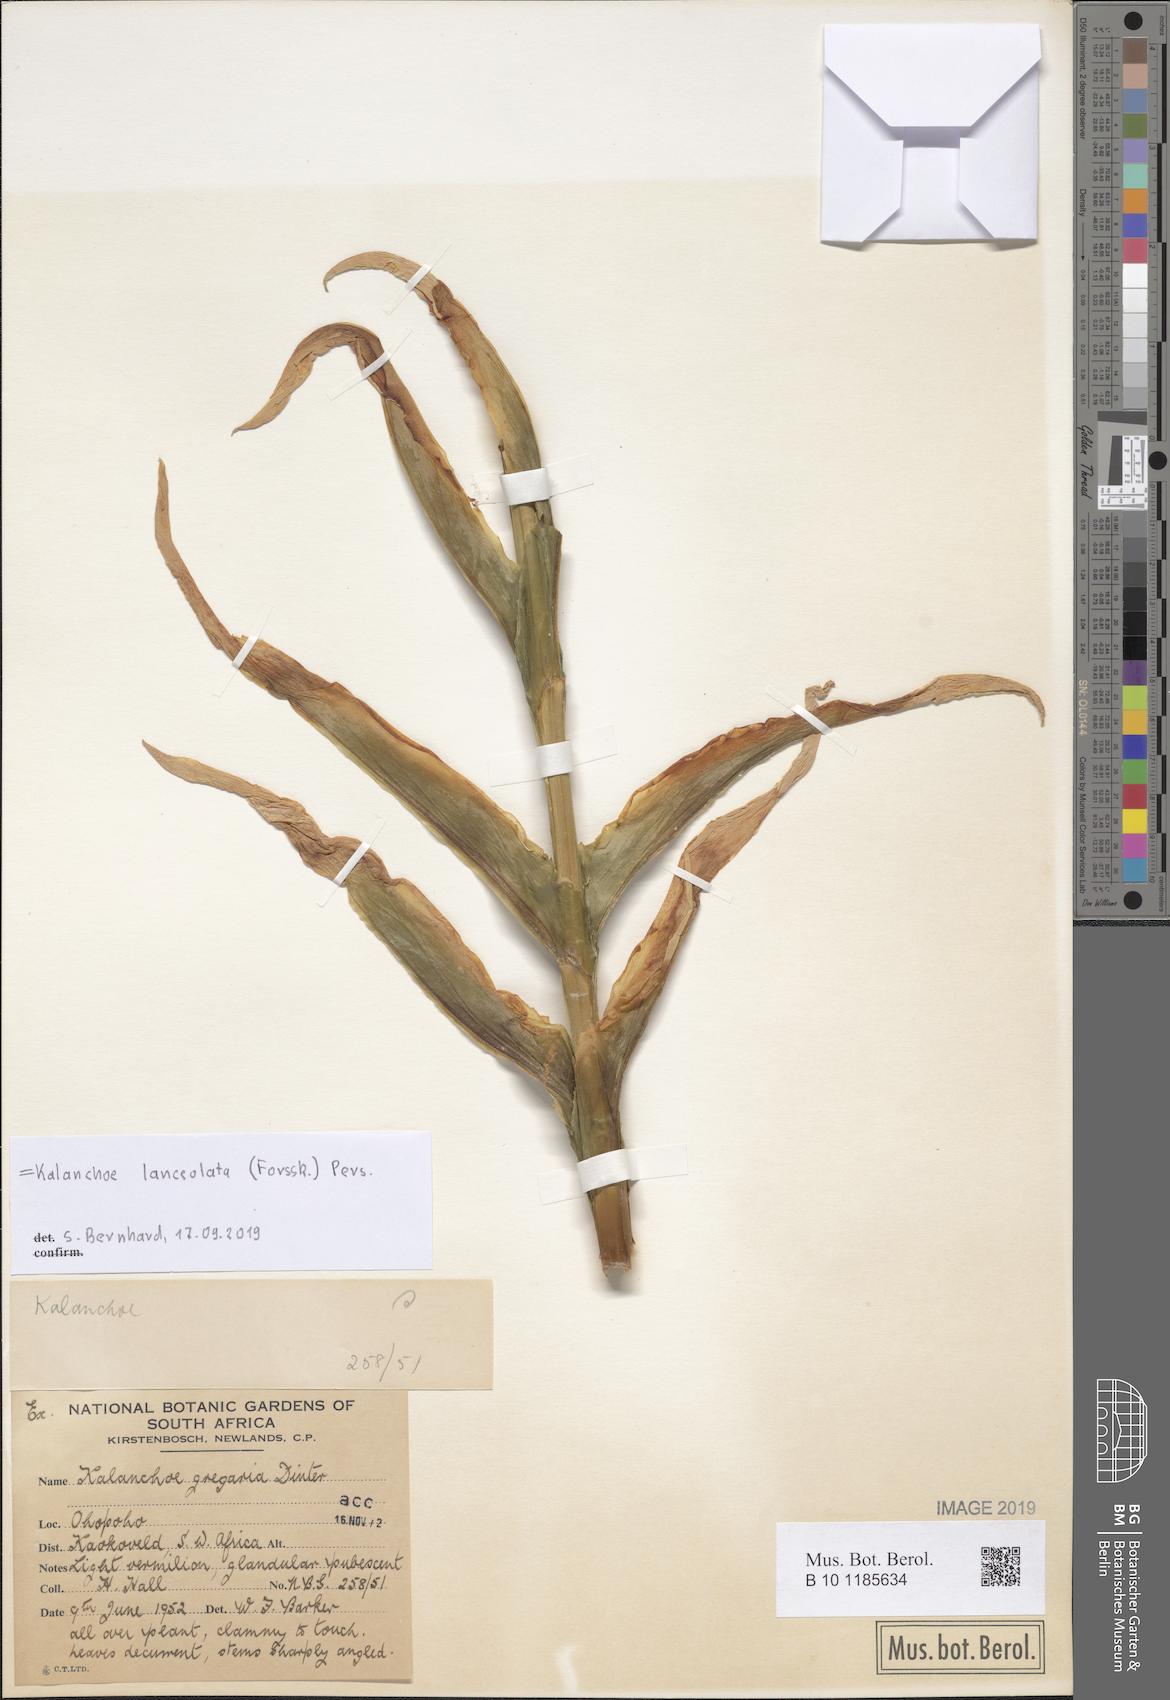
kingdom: Plantae
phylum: Tracheophyta
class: Magnoliopsida
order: Saxifragales
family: Crassulaceae
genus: Kalanchoe
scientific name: Kalanchoe lanceolata
